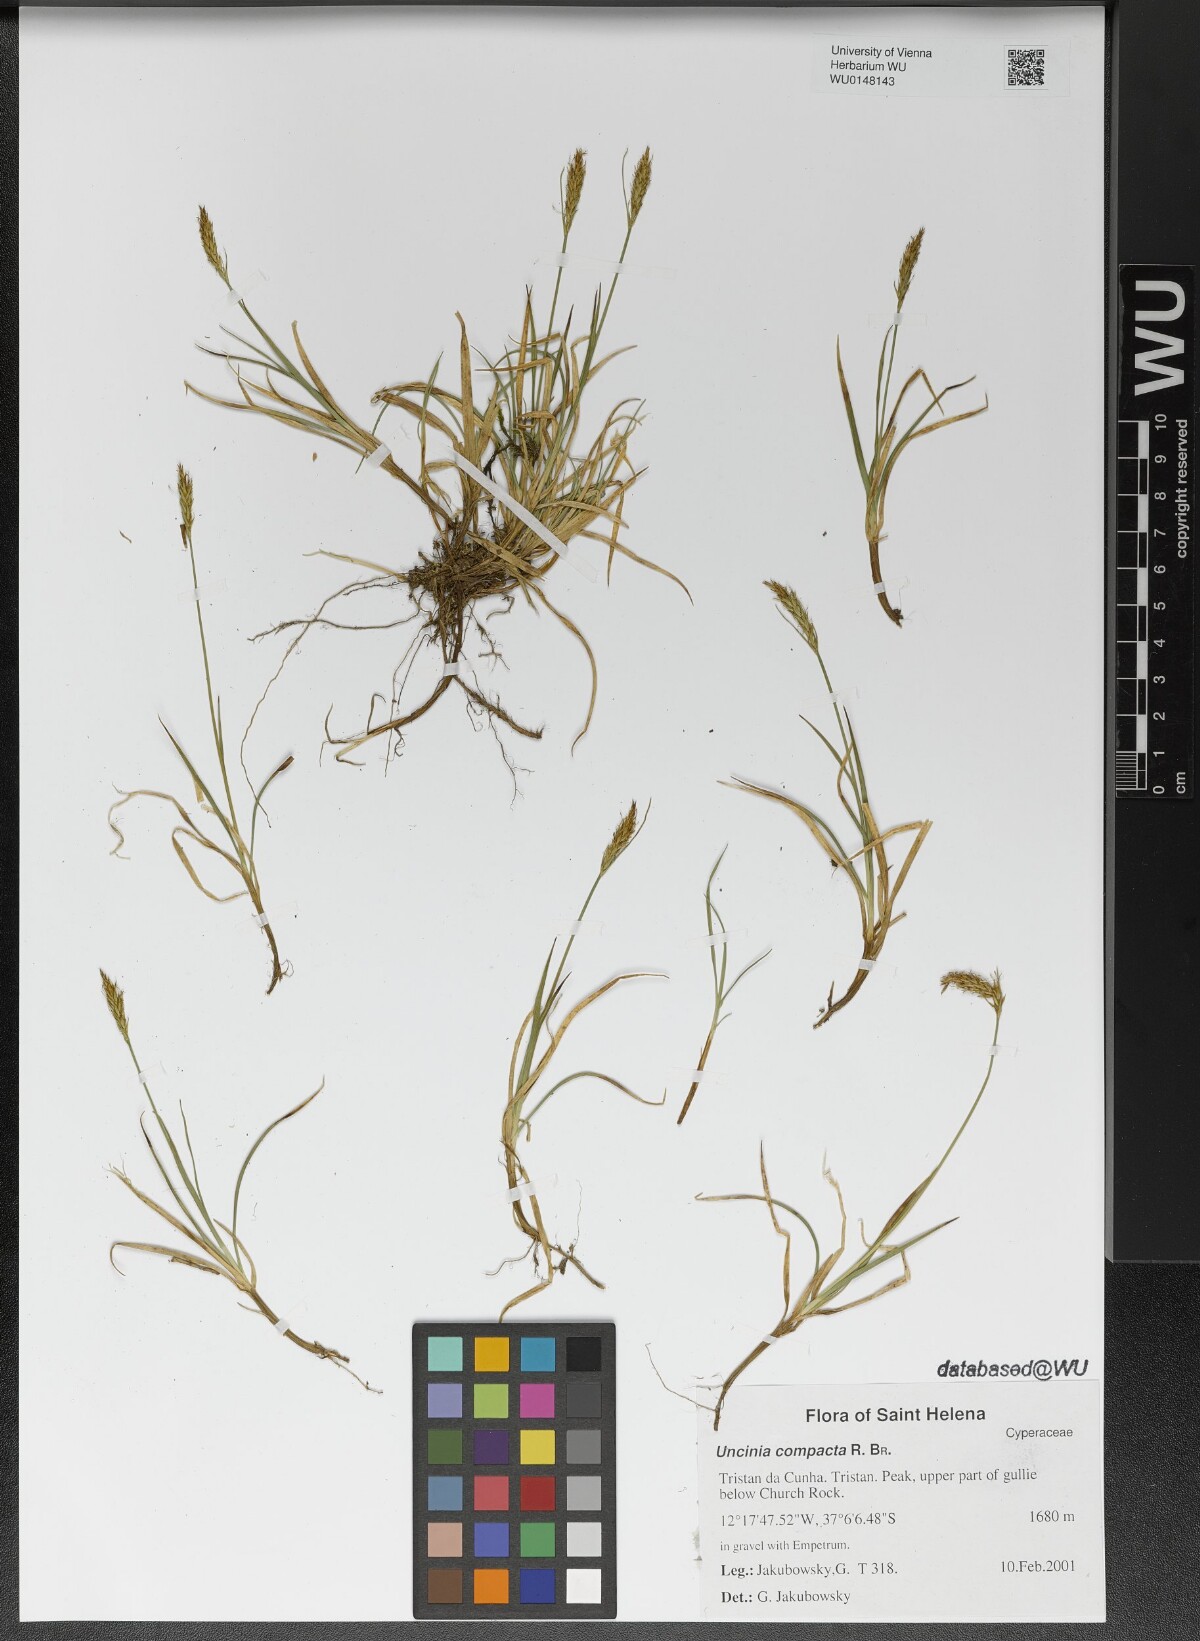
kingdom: Plantae
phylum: Tracheophyta
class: Liliopsida
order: Poales
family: Cyperaceae
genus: Carex
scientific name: Carex austrocompacta
